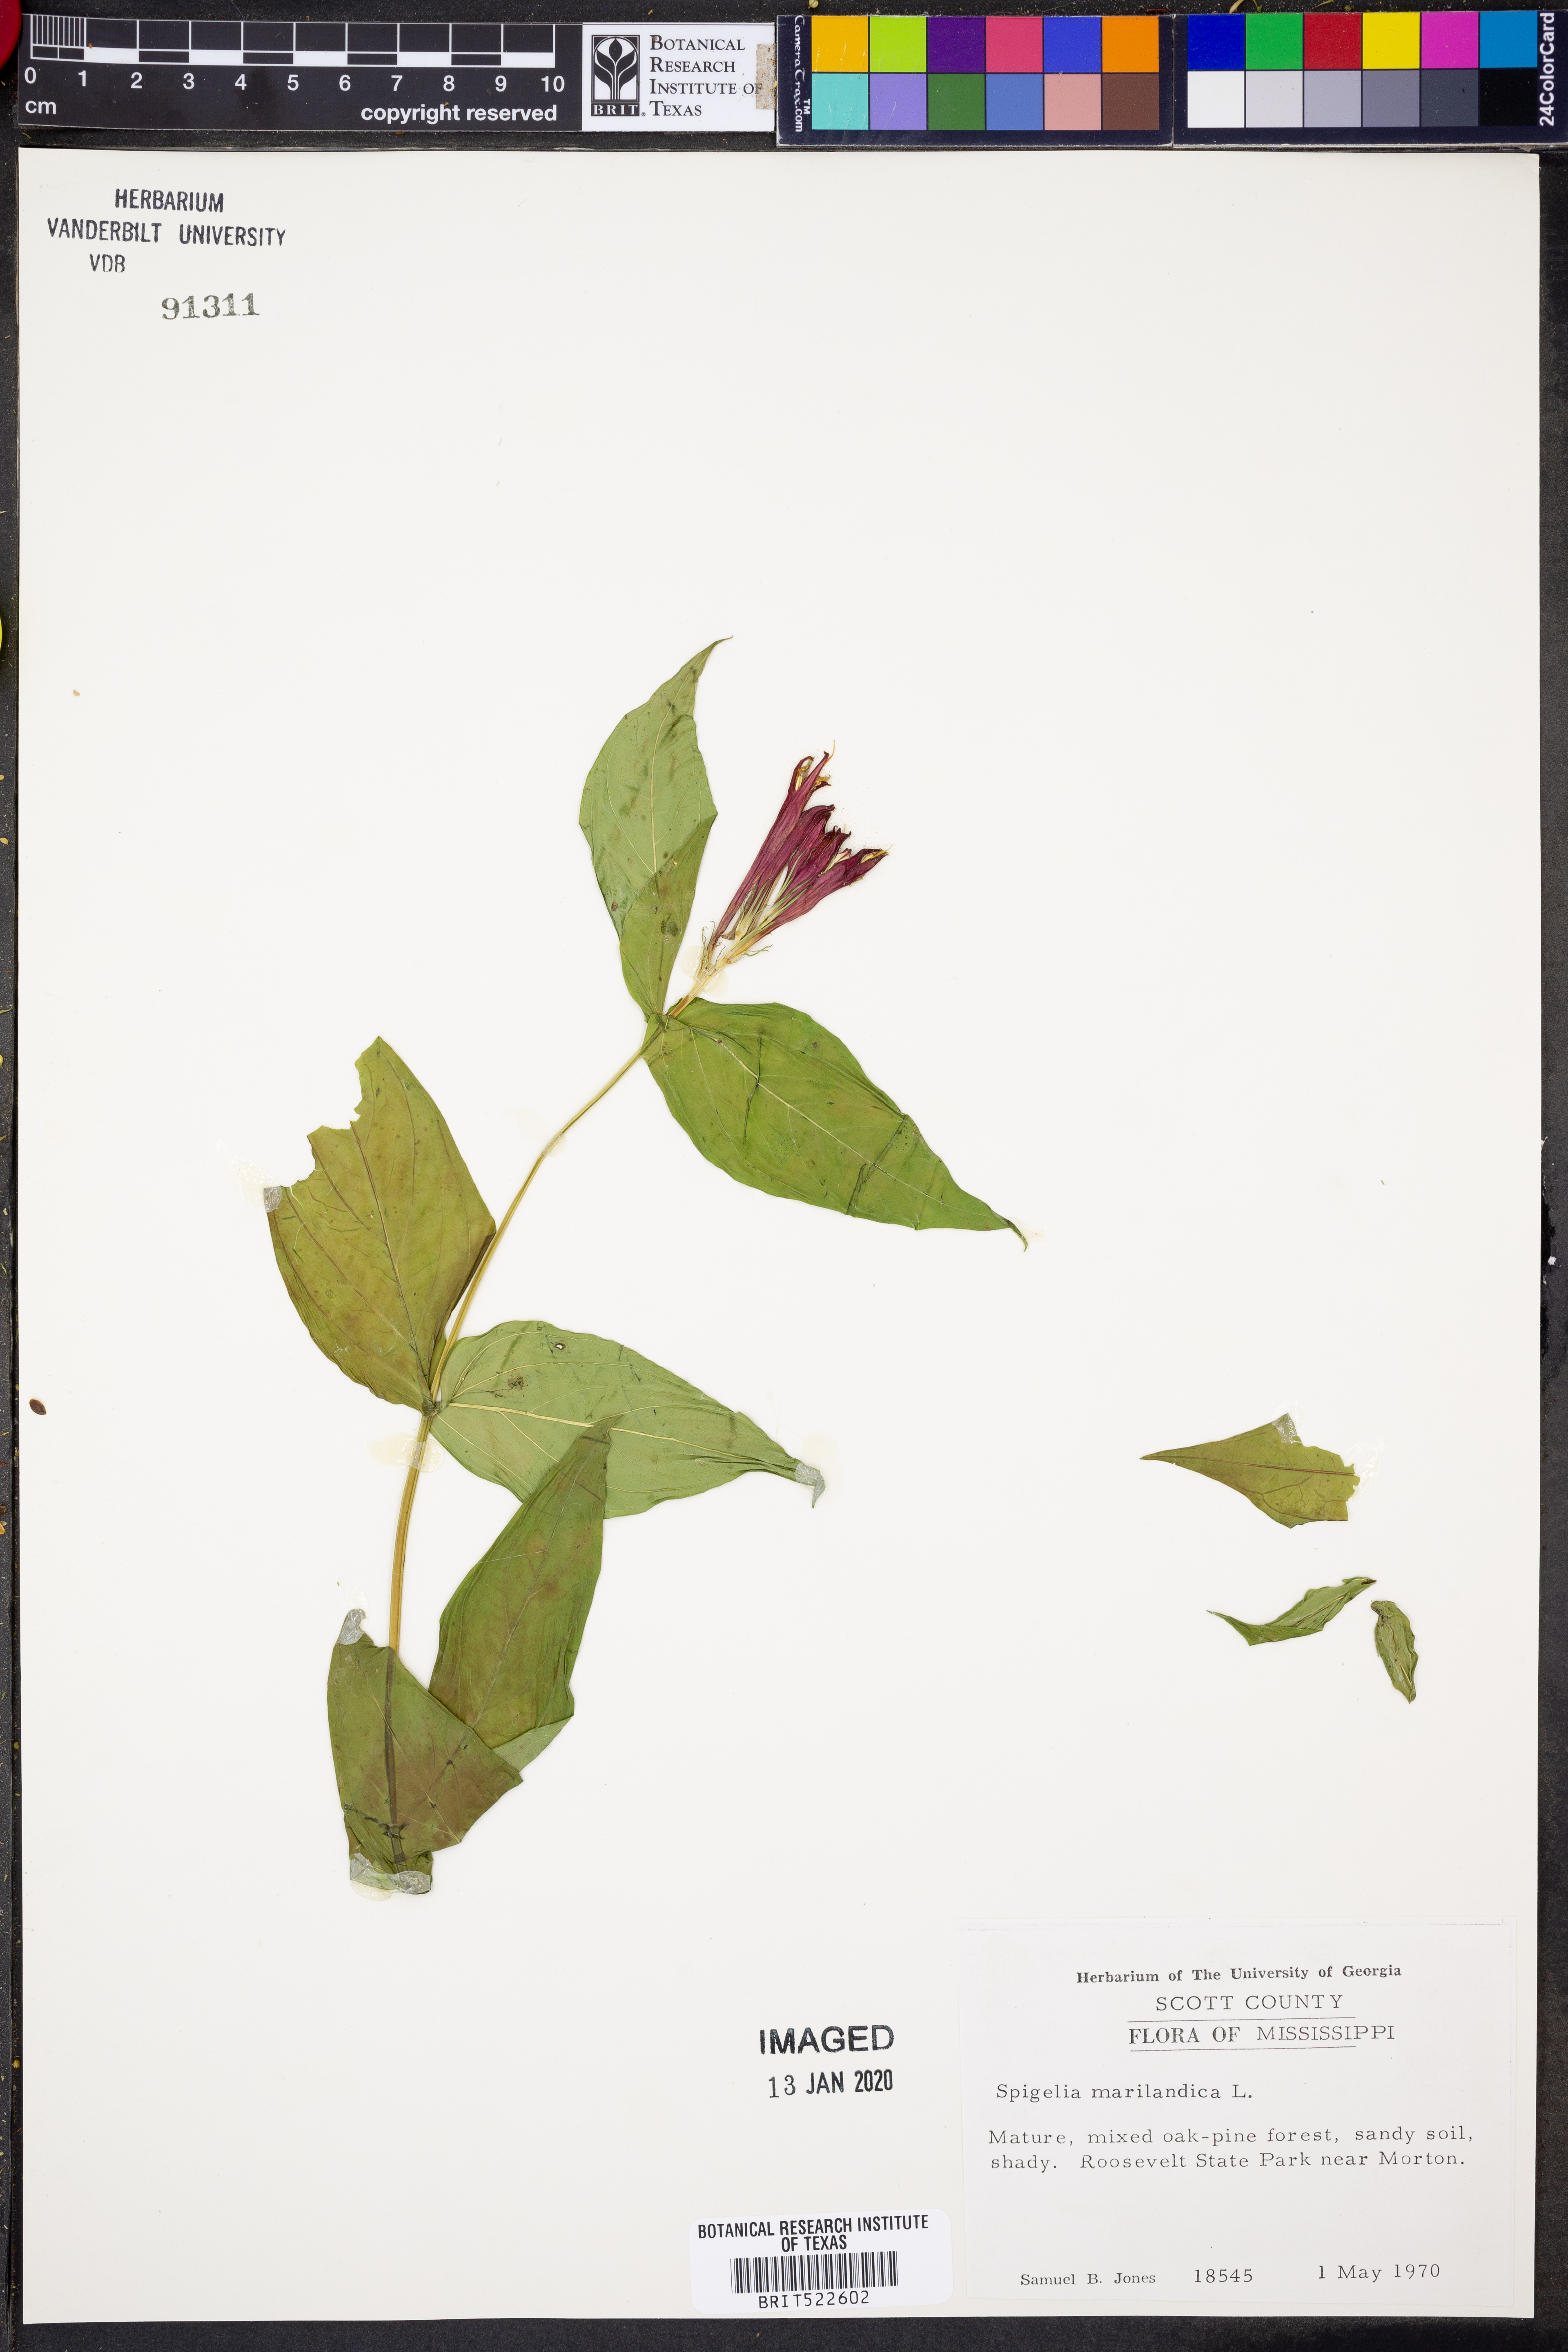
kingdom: Plantae
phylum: Tracheophyta
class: Magnoliopsida
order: Gentianales
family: Loganiaceae
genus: Spigelia
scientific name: Spigelia marilandica
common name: Indian-pink
